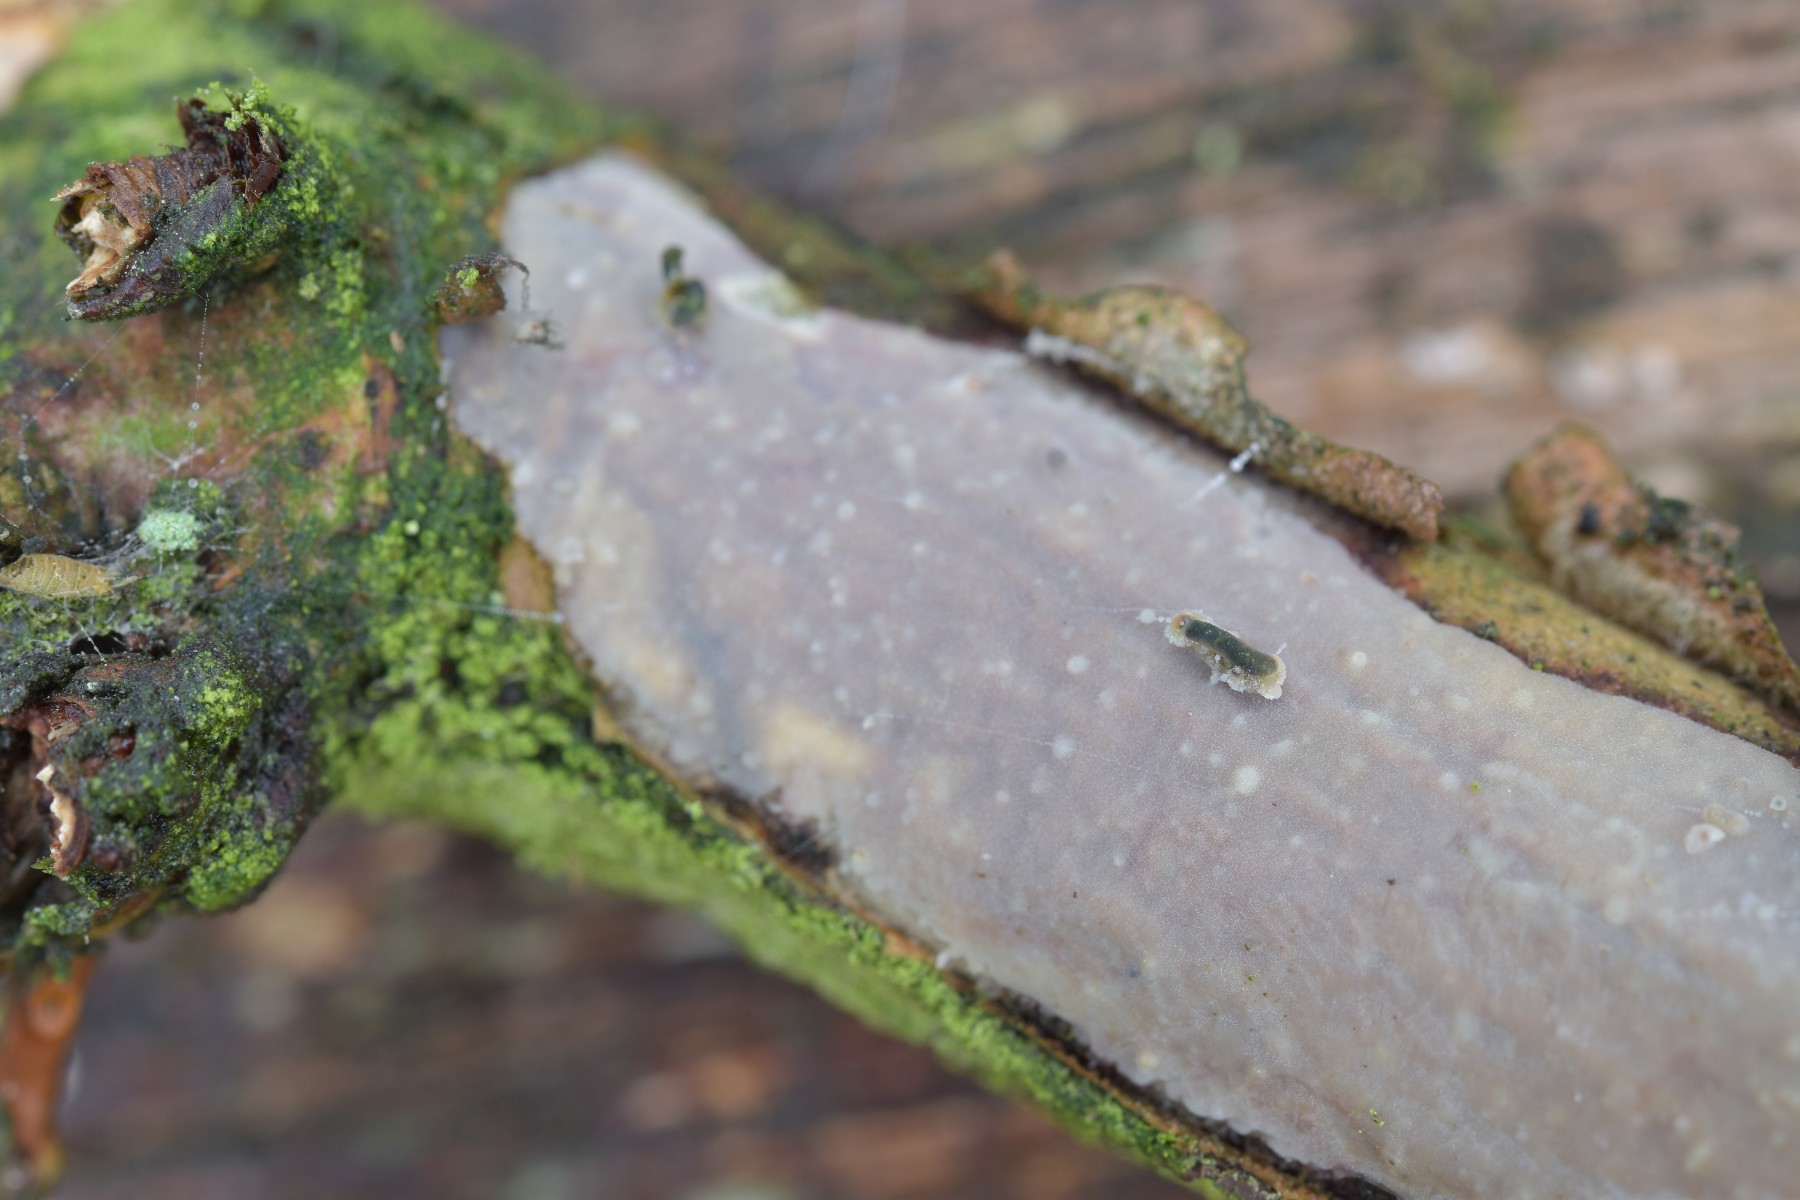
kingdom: Fungi
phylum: Basidiomycota
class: Agaricomycetes
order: Corticiales
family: Vuilleminiaceae
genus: Vuilleminia
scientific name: Vuilleminia comedens
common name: almindelig barksprænger
